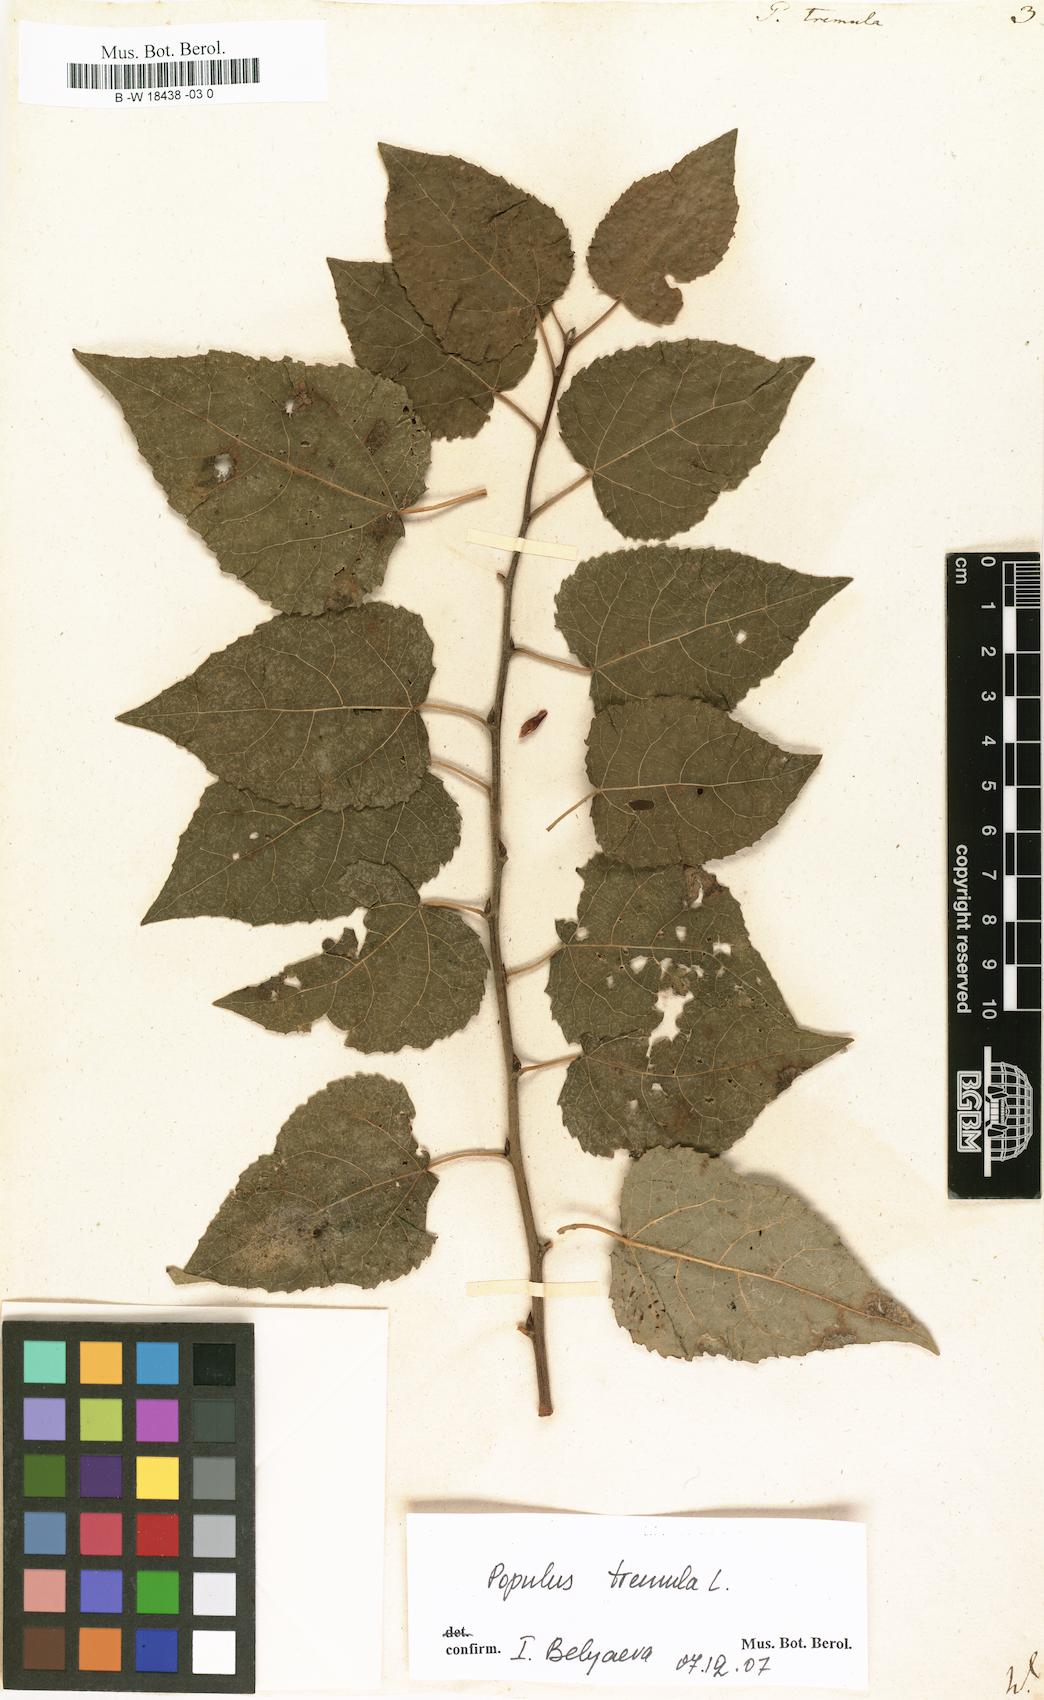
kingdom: Plantae
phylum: Tracheophyta
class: Magnoliopsida
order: Malpighiales
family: Salicaceae
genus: Populus
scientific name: Populus tremula
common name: European aspen
